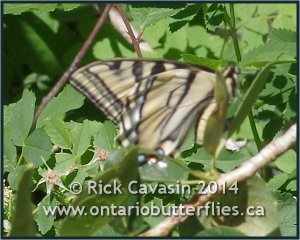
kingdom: Animalia
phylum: Arthropoda
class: Insecta
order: Lepidoptera
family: Papilionidae
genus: Pterourus
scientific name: Pterourus rutulus
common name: Western Tiger Swallowtail
